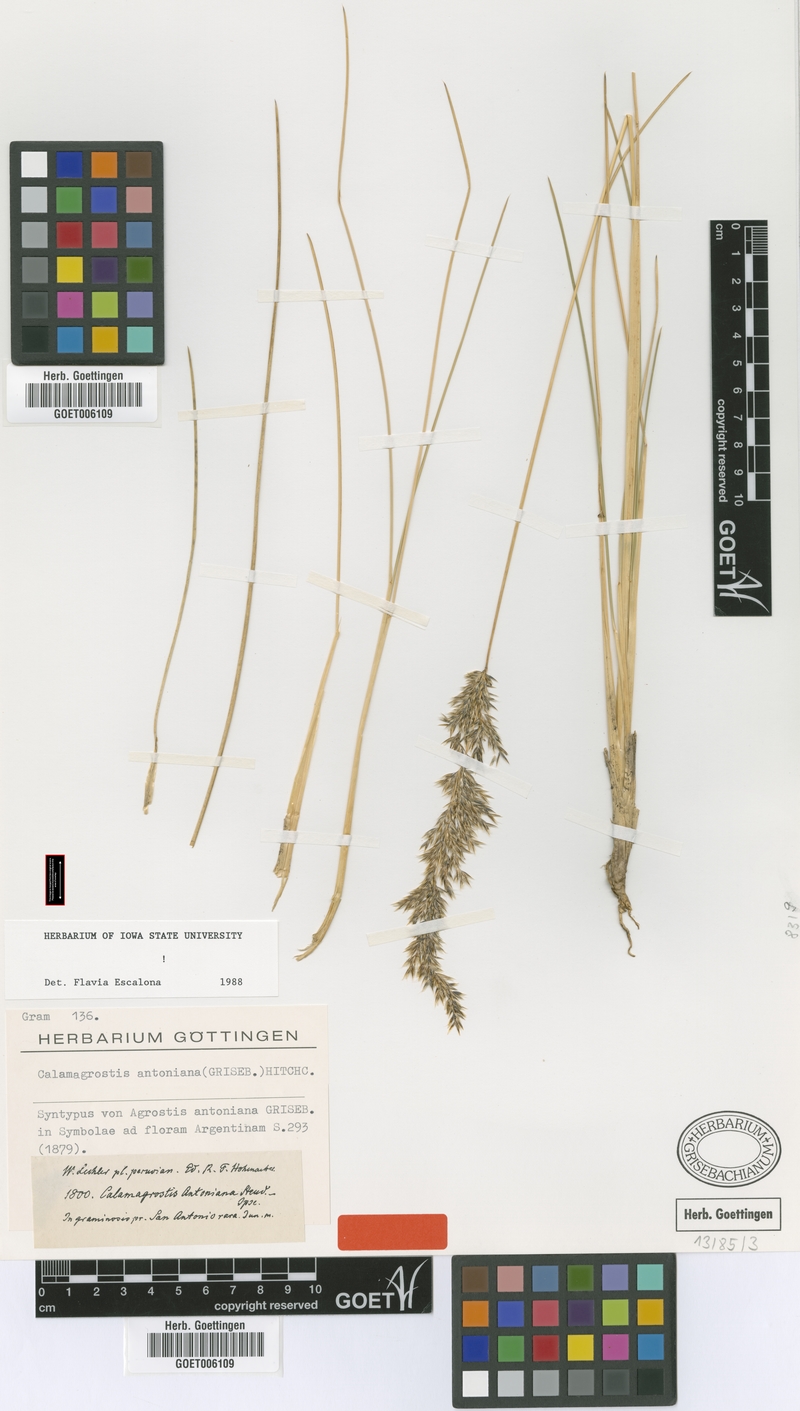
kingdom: Plantae
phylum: Tracheophyta
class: Liliopsida
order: Poales
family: Poaceae
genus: Cinnagrostis
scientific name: Cinnagrostis rigida
